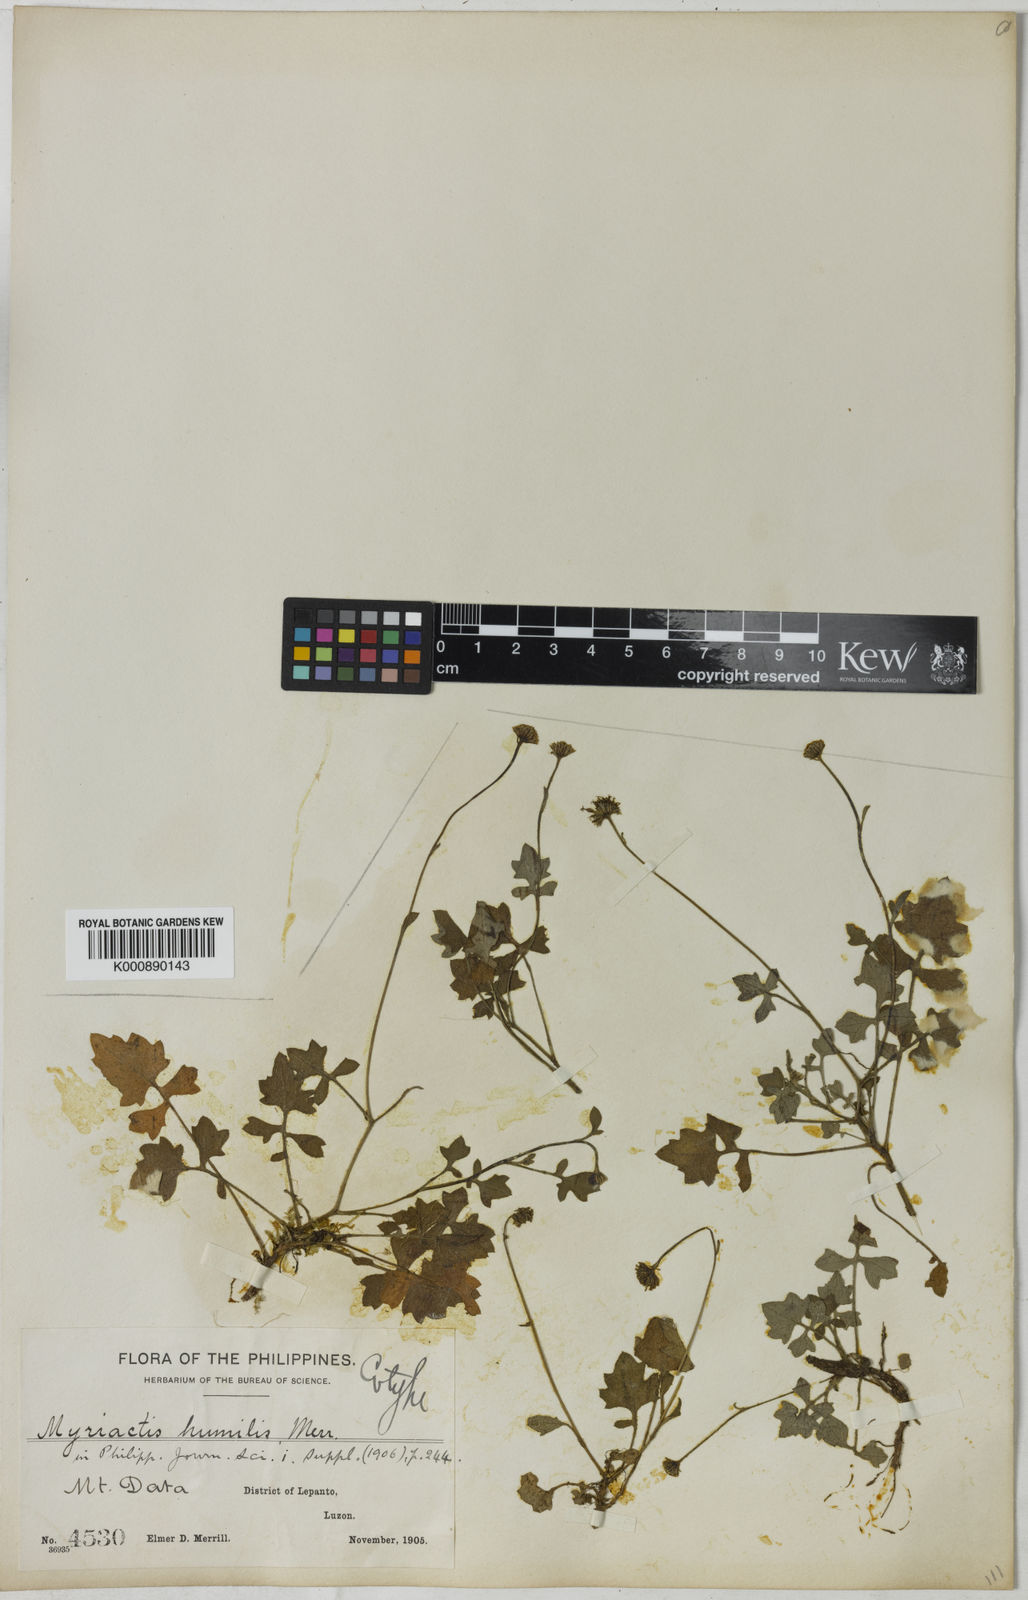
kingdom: Plantae
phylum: Tracheophyta
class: Magnoliopsida
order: Asterales
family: Asteraceae
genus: Myriactis
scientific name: Myriactis humilis
